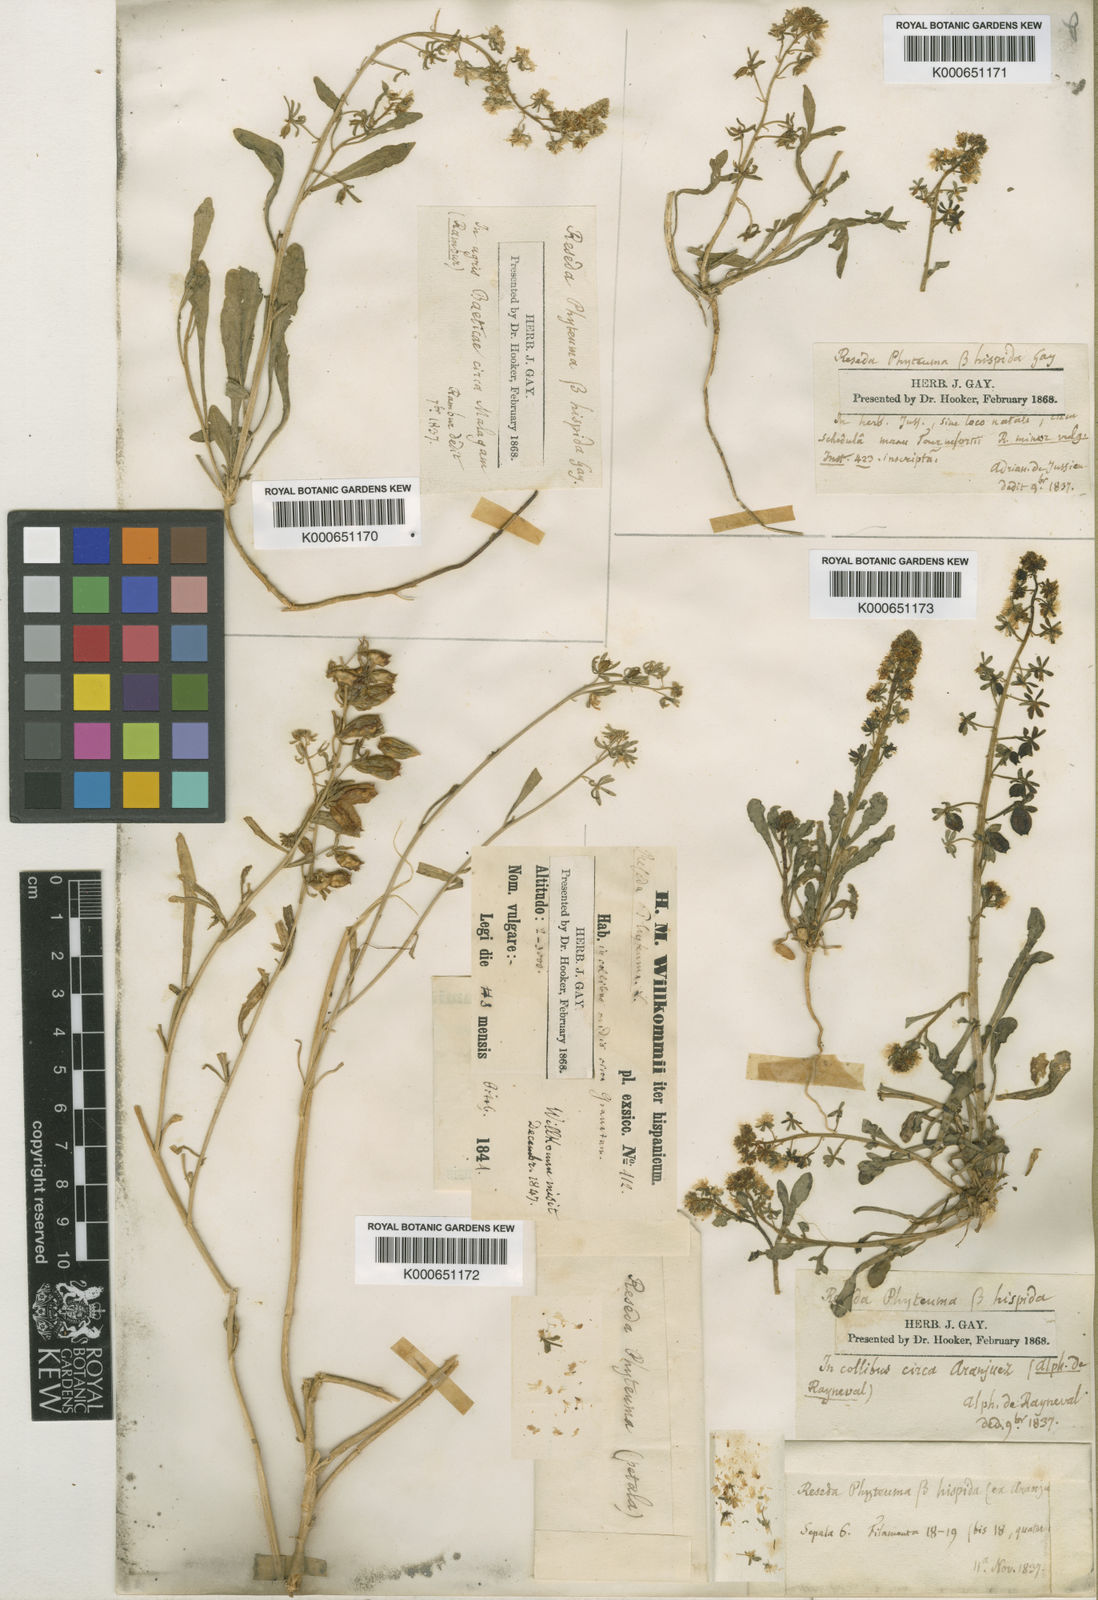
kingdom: Plantae
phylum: Tracheophyta
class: Magnoliopsida
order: Brassicales
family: Resedaceae
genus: Reseda
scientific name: Reseda phyteuma
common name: Corn mignonette
